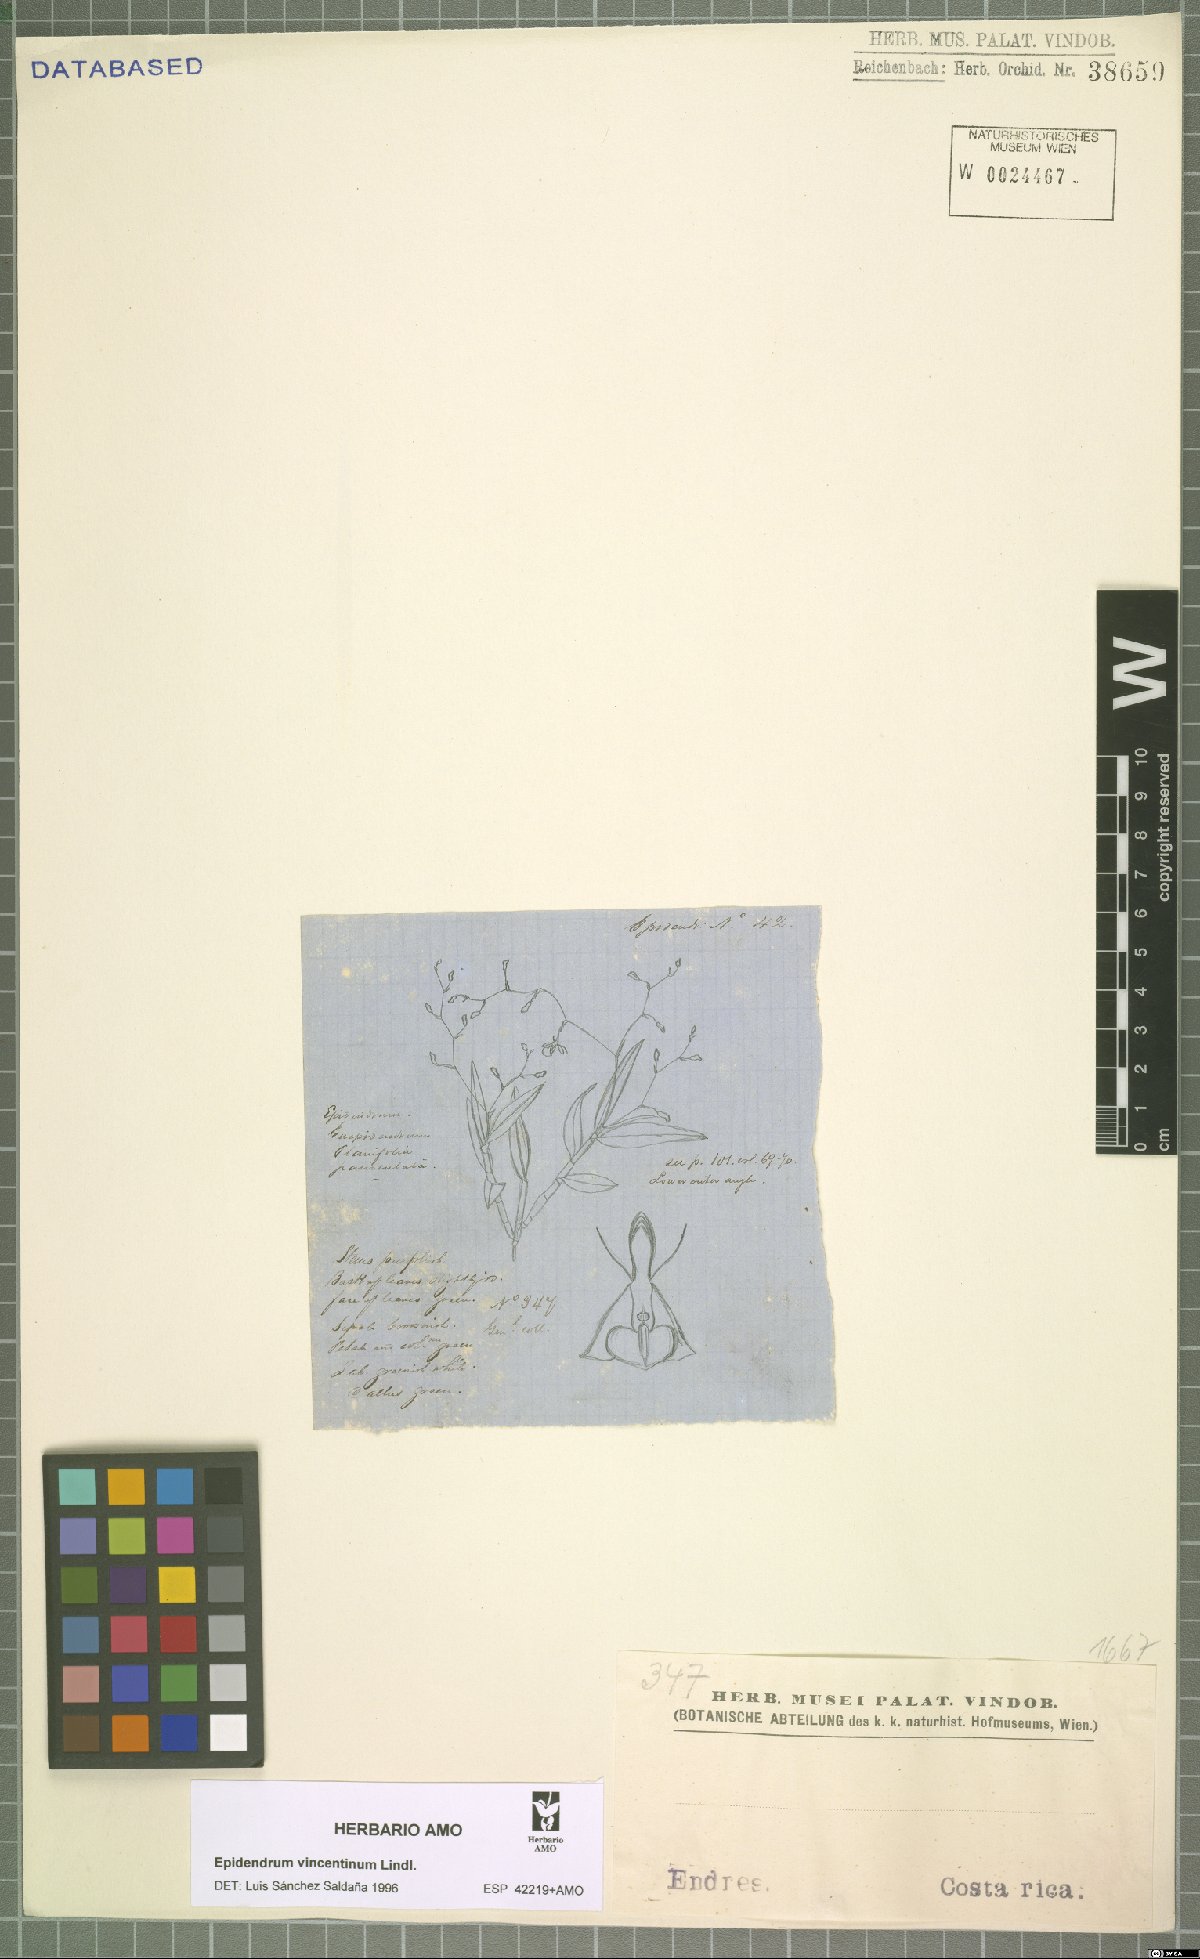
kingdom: Plantae
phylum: Tracheophyta
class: Liliopsida
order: Asparagales
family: Orchidaceae
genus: Epidendrum
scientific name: Epidendrum vincentinum
